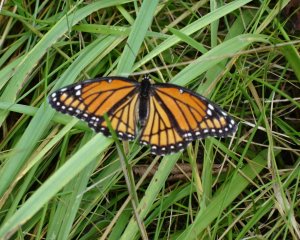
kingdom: Animalia
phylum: Arthropoda
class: Insecta
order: Lepidoptera
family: Nymphalidae
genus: Limenitis
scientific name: Limenitis archippus
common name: Viceroy
